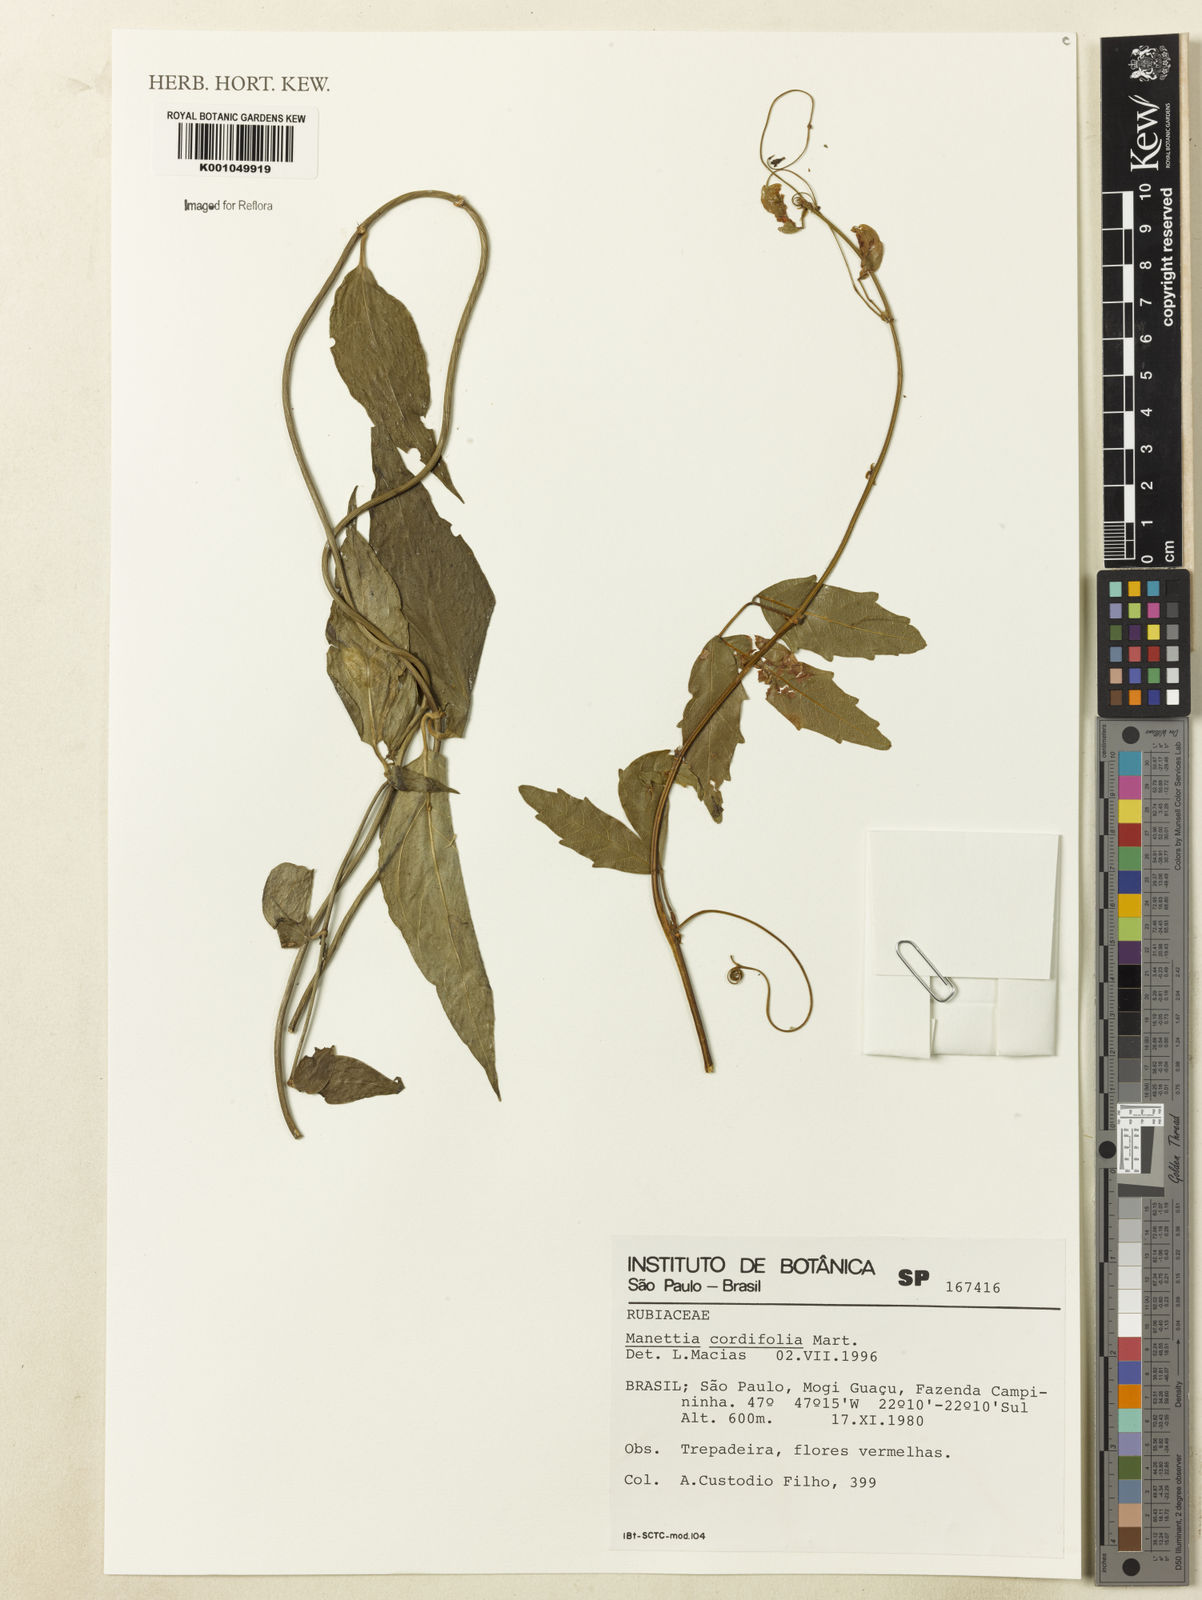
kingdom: Plantae
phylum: Tracheophyta
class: Magnoliopsida
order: Gentianales
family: Rubiaceae
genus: Manettia
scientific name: Manettia cordifolia
